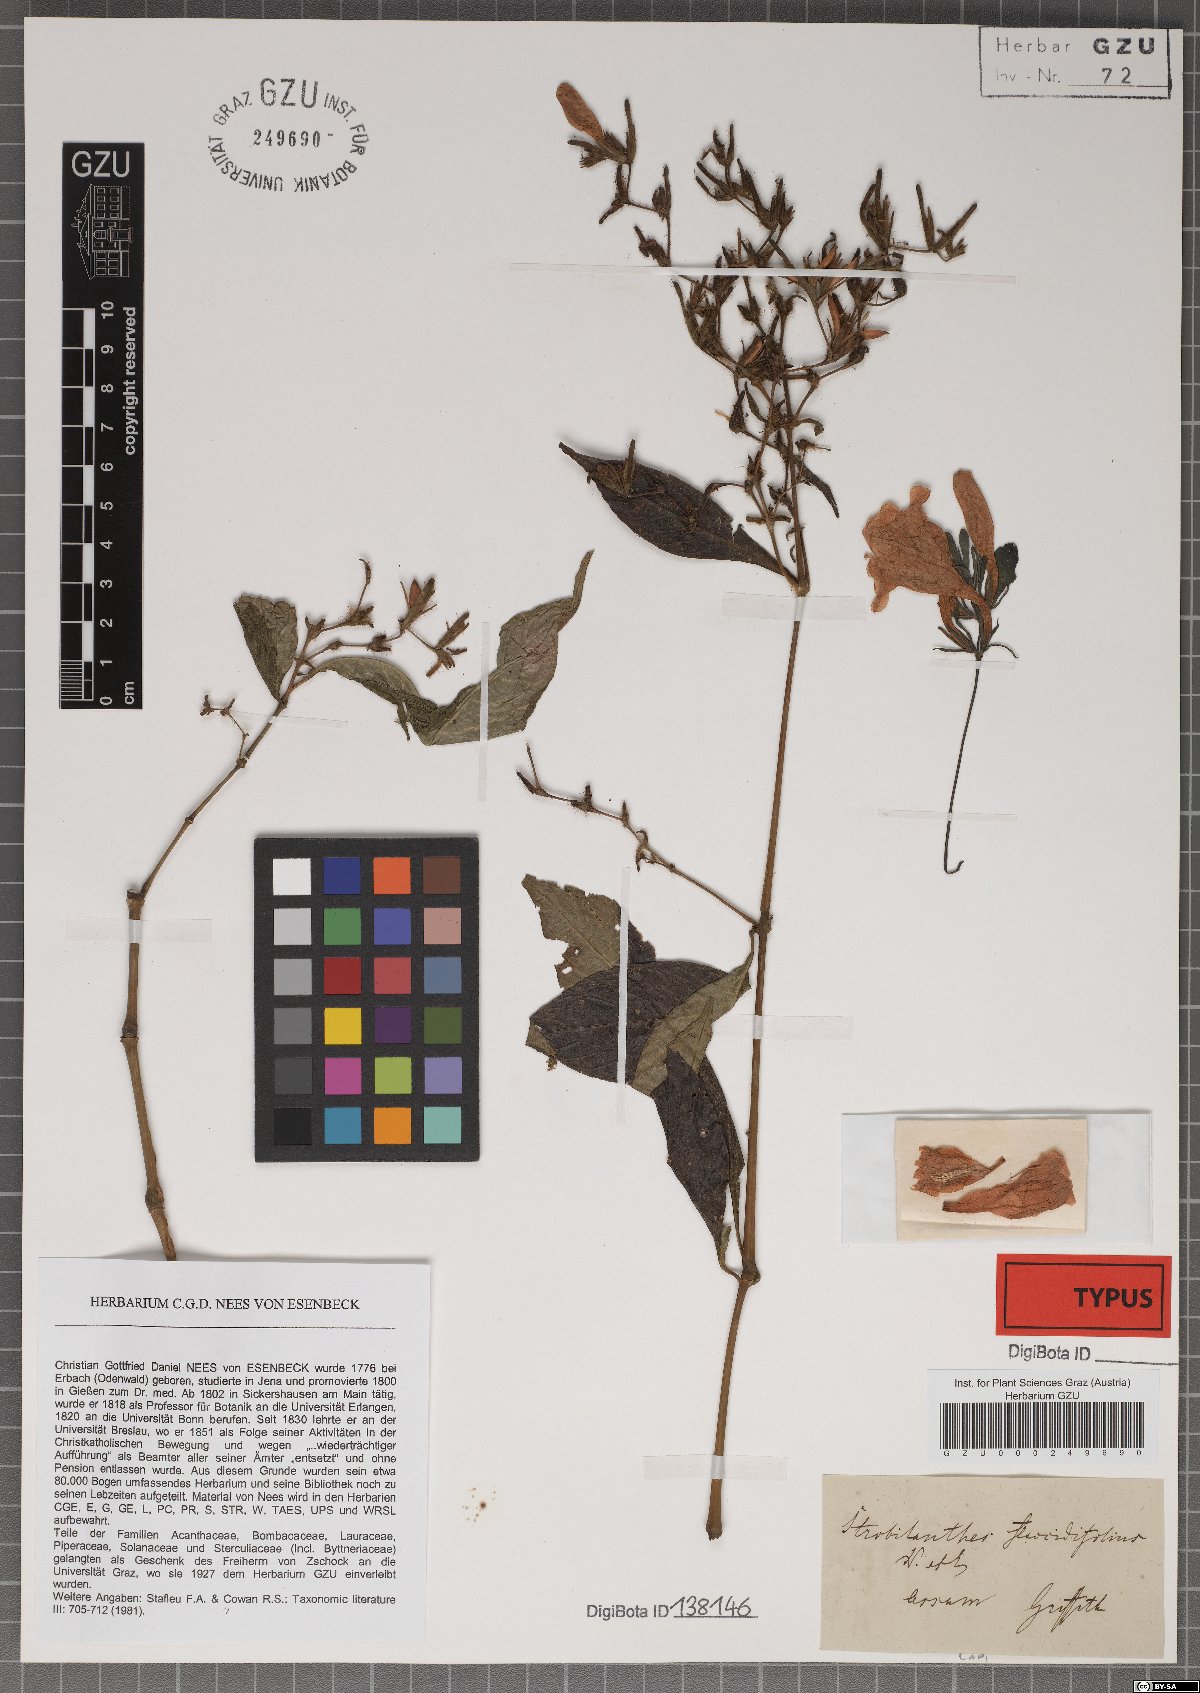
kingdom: Plantae
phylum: Tracheophyta
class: Magnoliopsida
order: Lamiales
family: Acanthaceae
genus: Strobilanthes
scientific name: Strobilanthes
